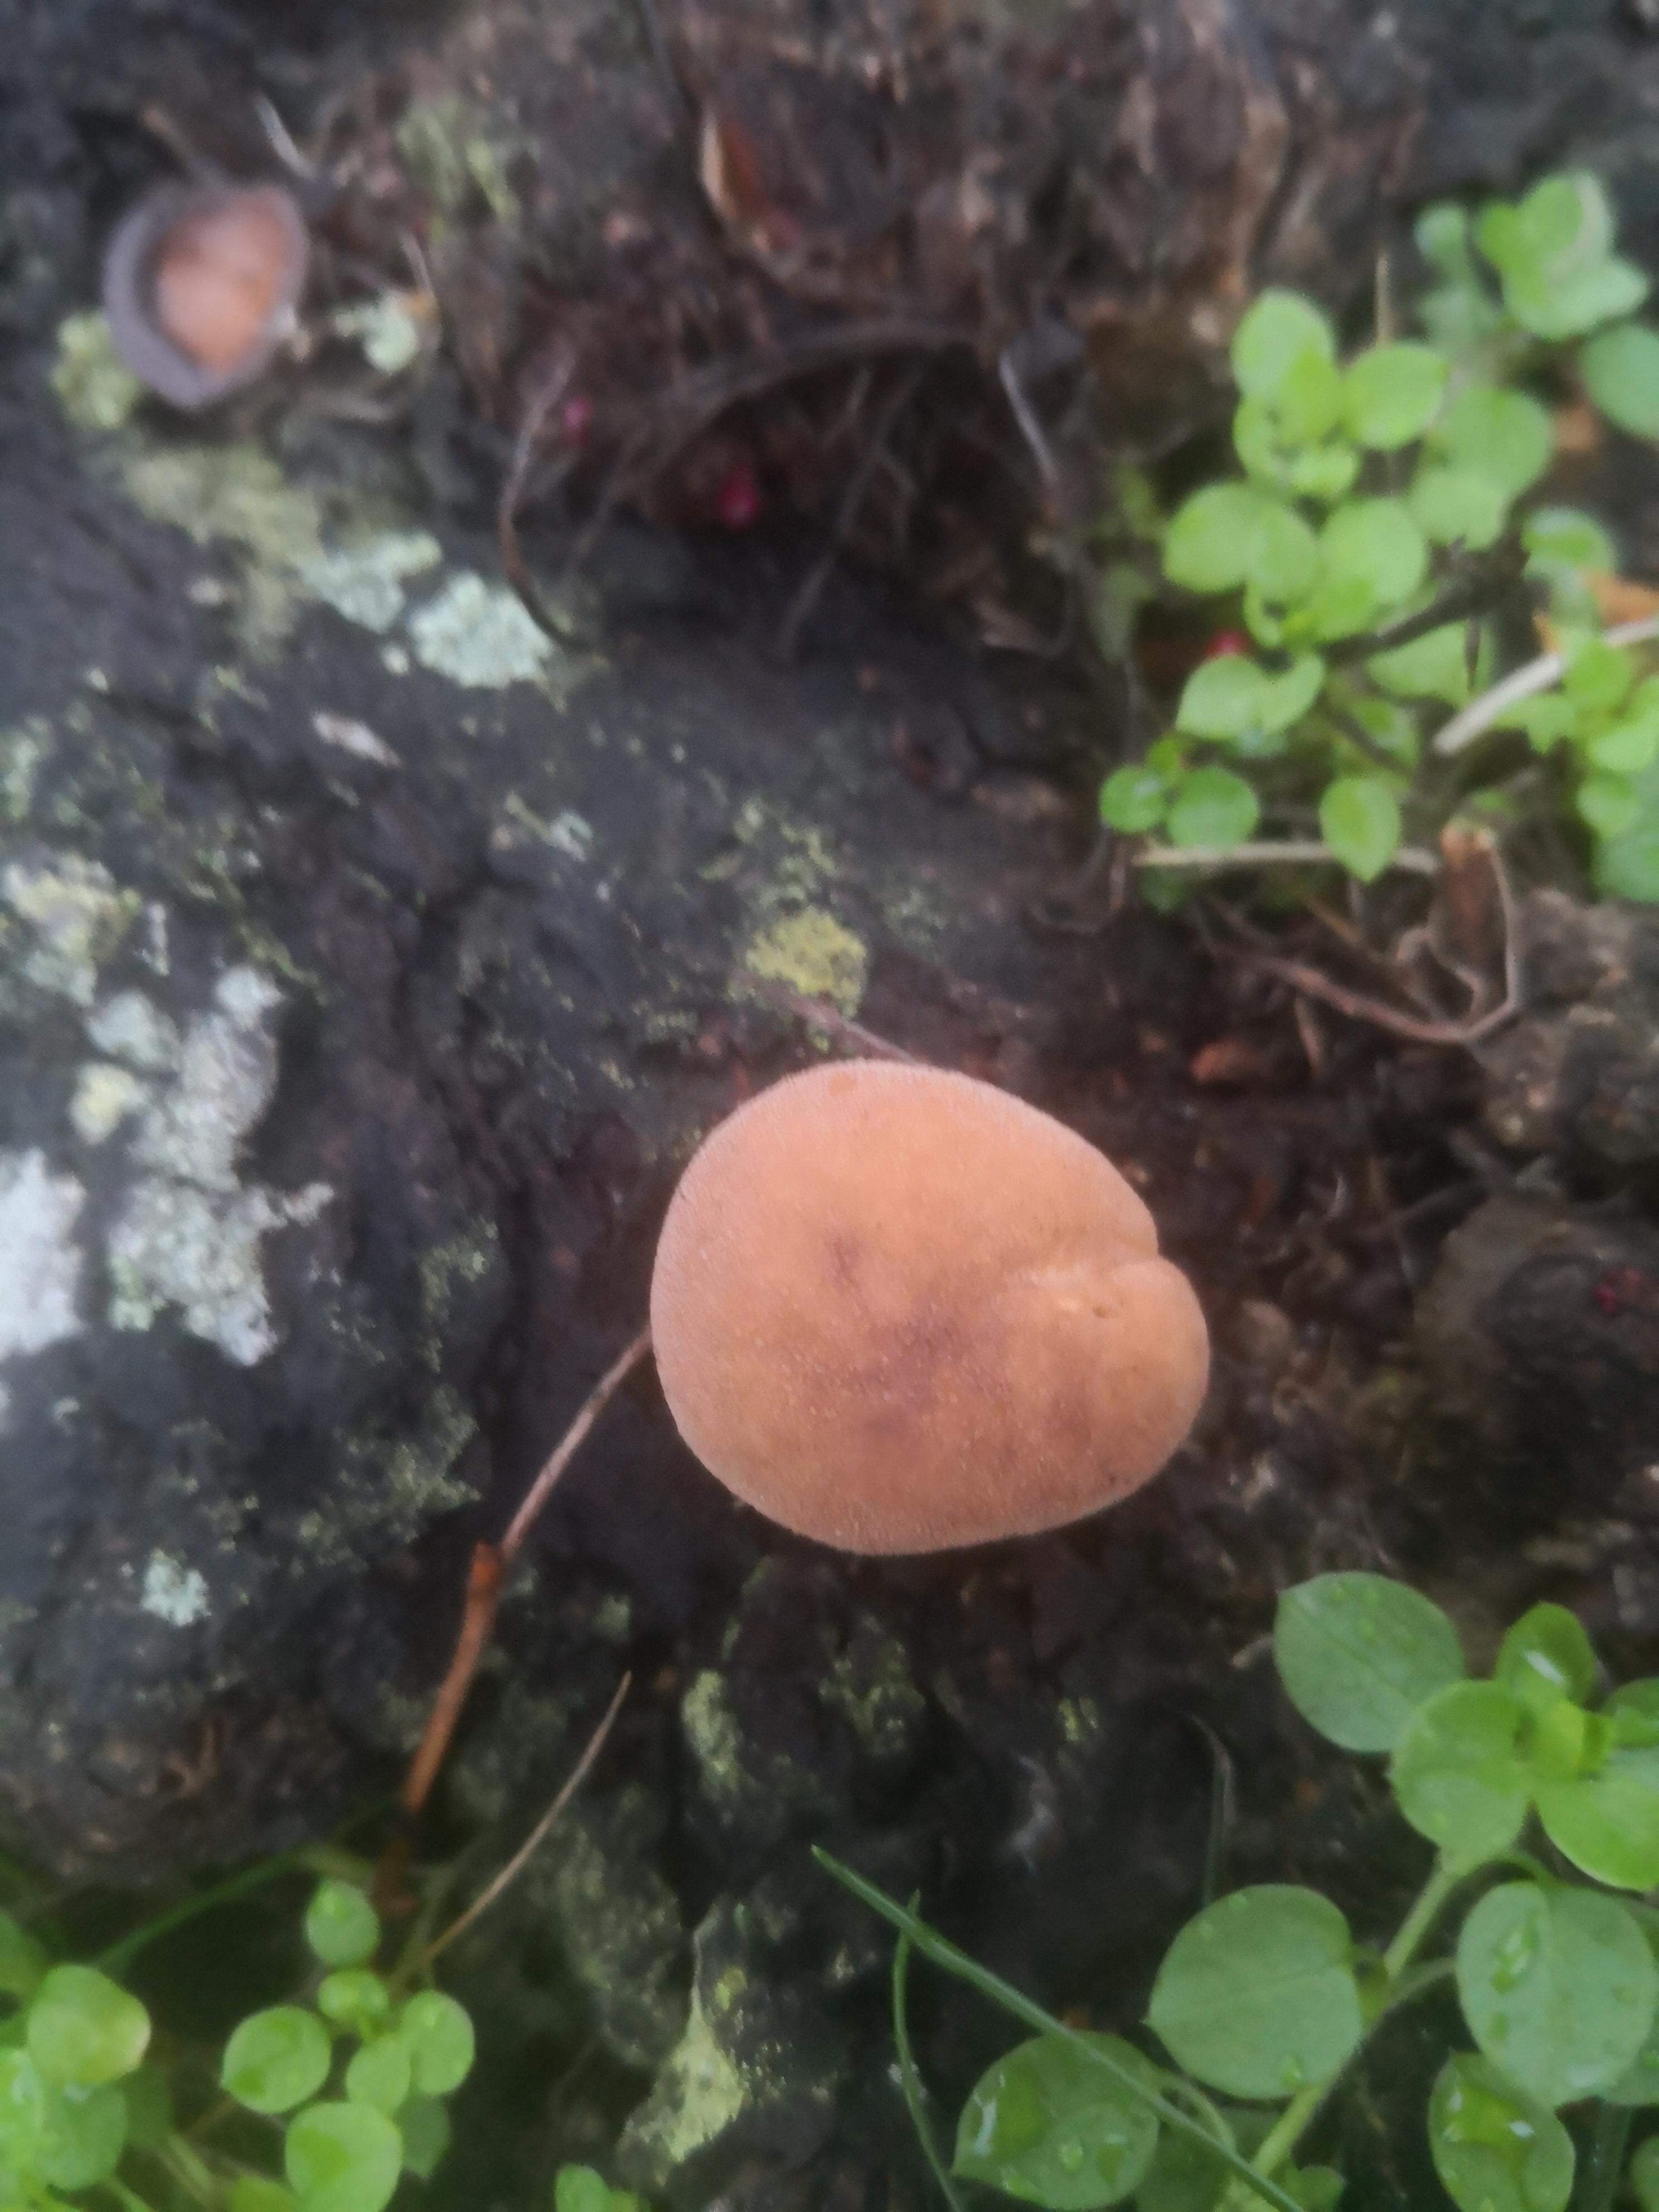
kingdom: Fungi
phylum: Basidiomycota
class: Agaricomycetes
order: Agaricales
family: Agaricaceae
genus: Lycoperdon
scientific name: Lycoperdon
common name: støvbold
